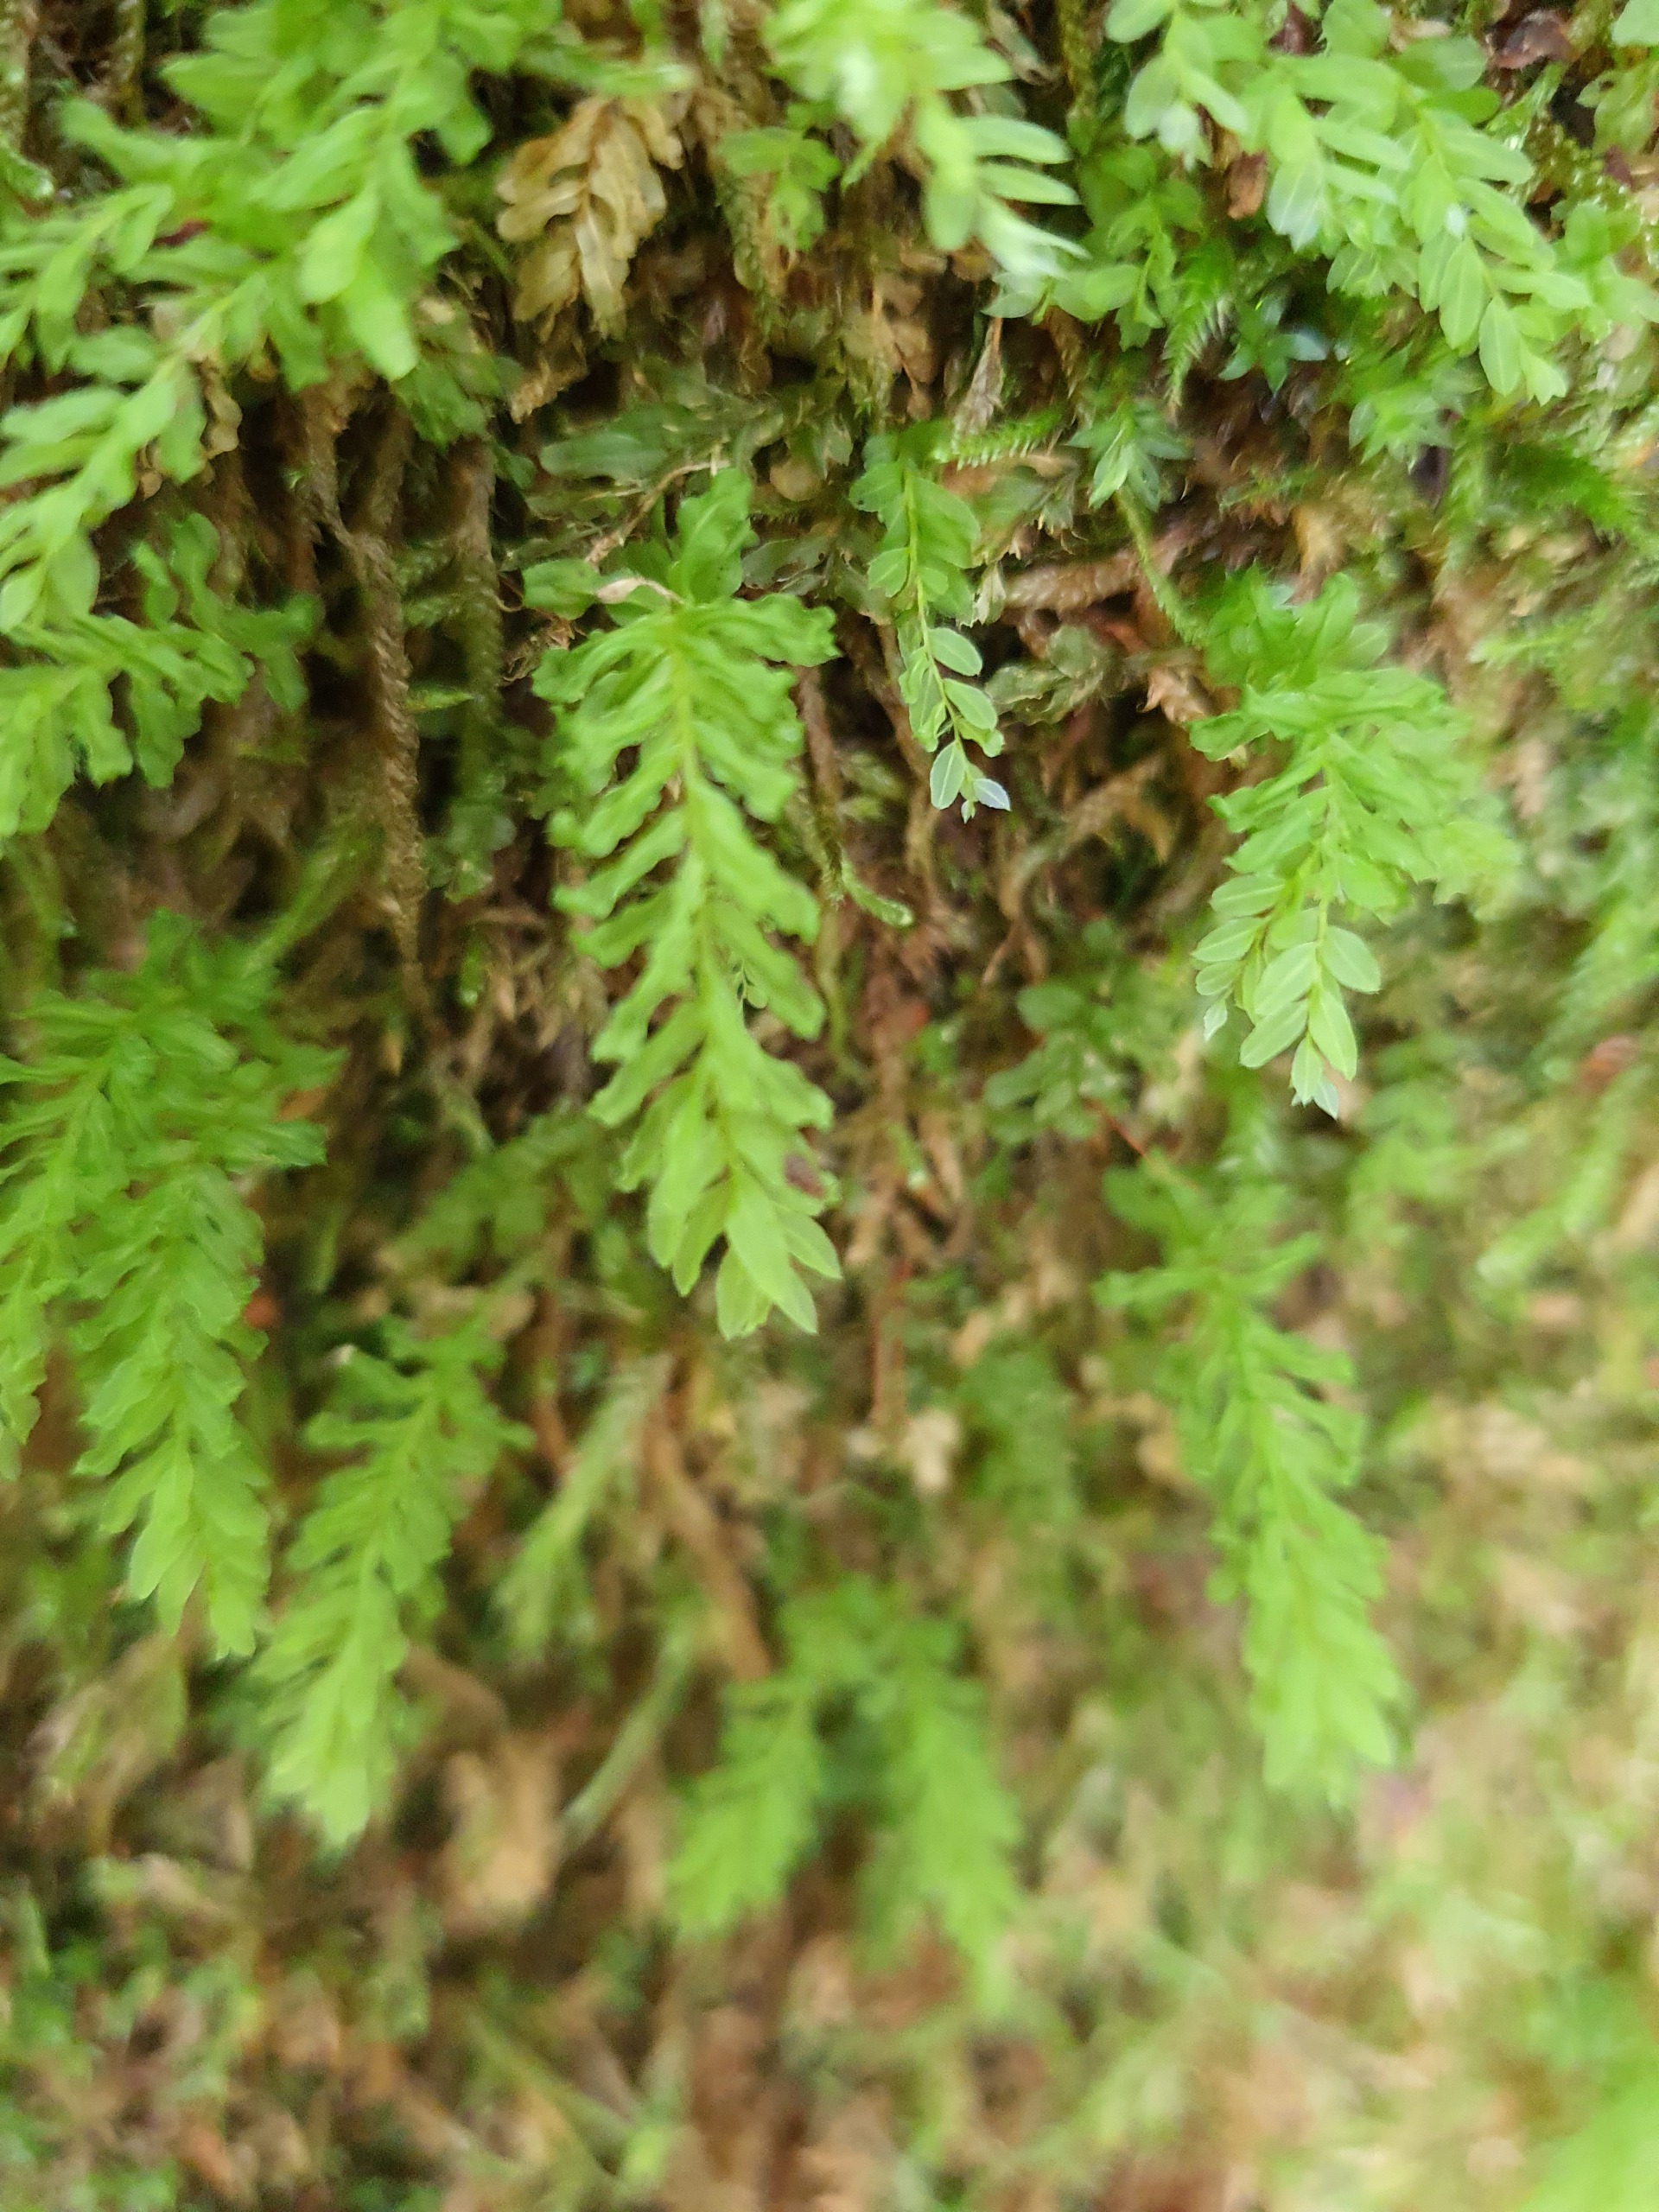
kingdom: Plantae
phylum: Bryophyta
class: Bryopsida
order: Bryales
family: Mniaceae
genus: Plagiomnium
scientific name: Plagiomnium undulatum
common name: Bølget krybstjerne
